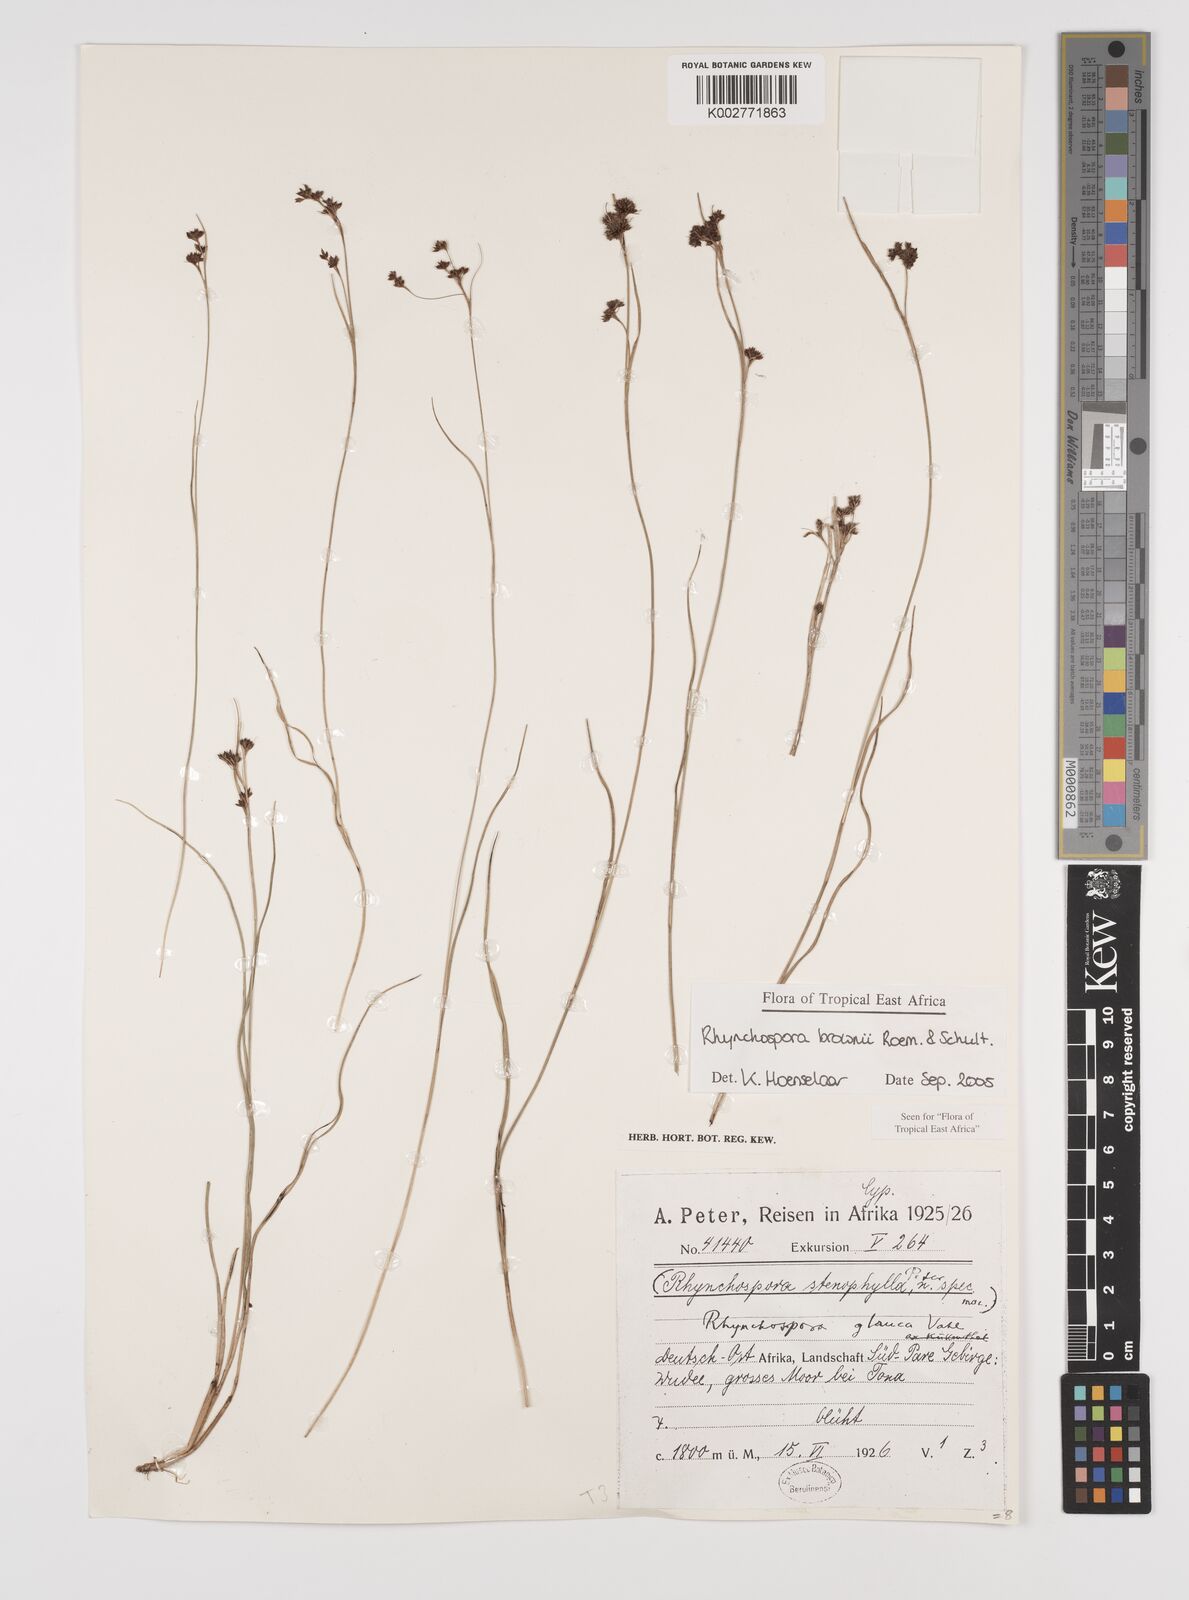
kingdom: Plantae
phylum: Tracheophyta
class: Liliopsida
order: Poales
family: Cyperaceae
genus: Rhynchospora
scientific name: Rhynchospora brownii
